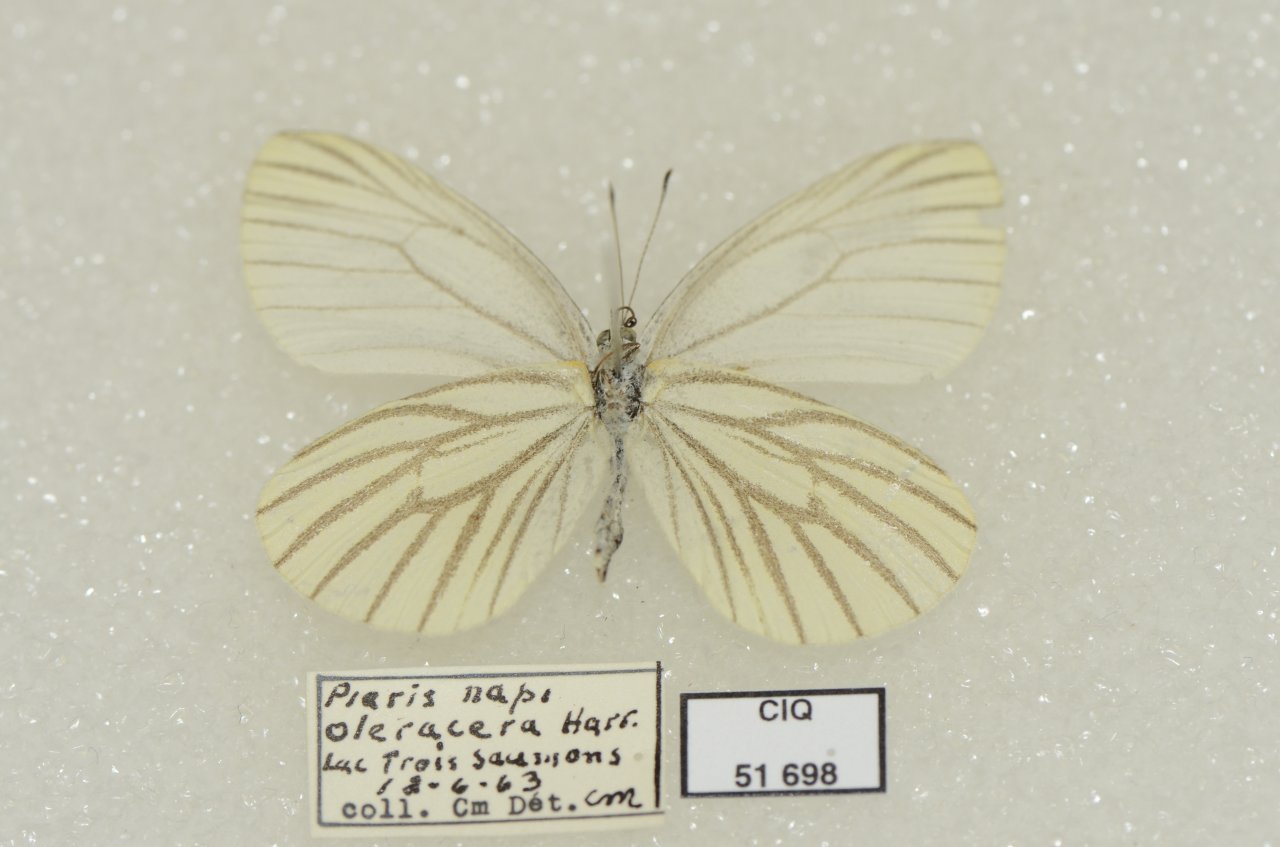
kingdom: Animalia
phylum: Arthropoda
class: Insecta
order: Lepidoptera
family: Pieridae
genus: Pieris
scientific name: Pieris oleracea
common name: Mustard White
